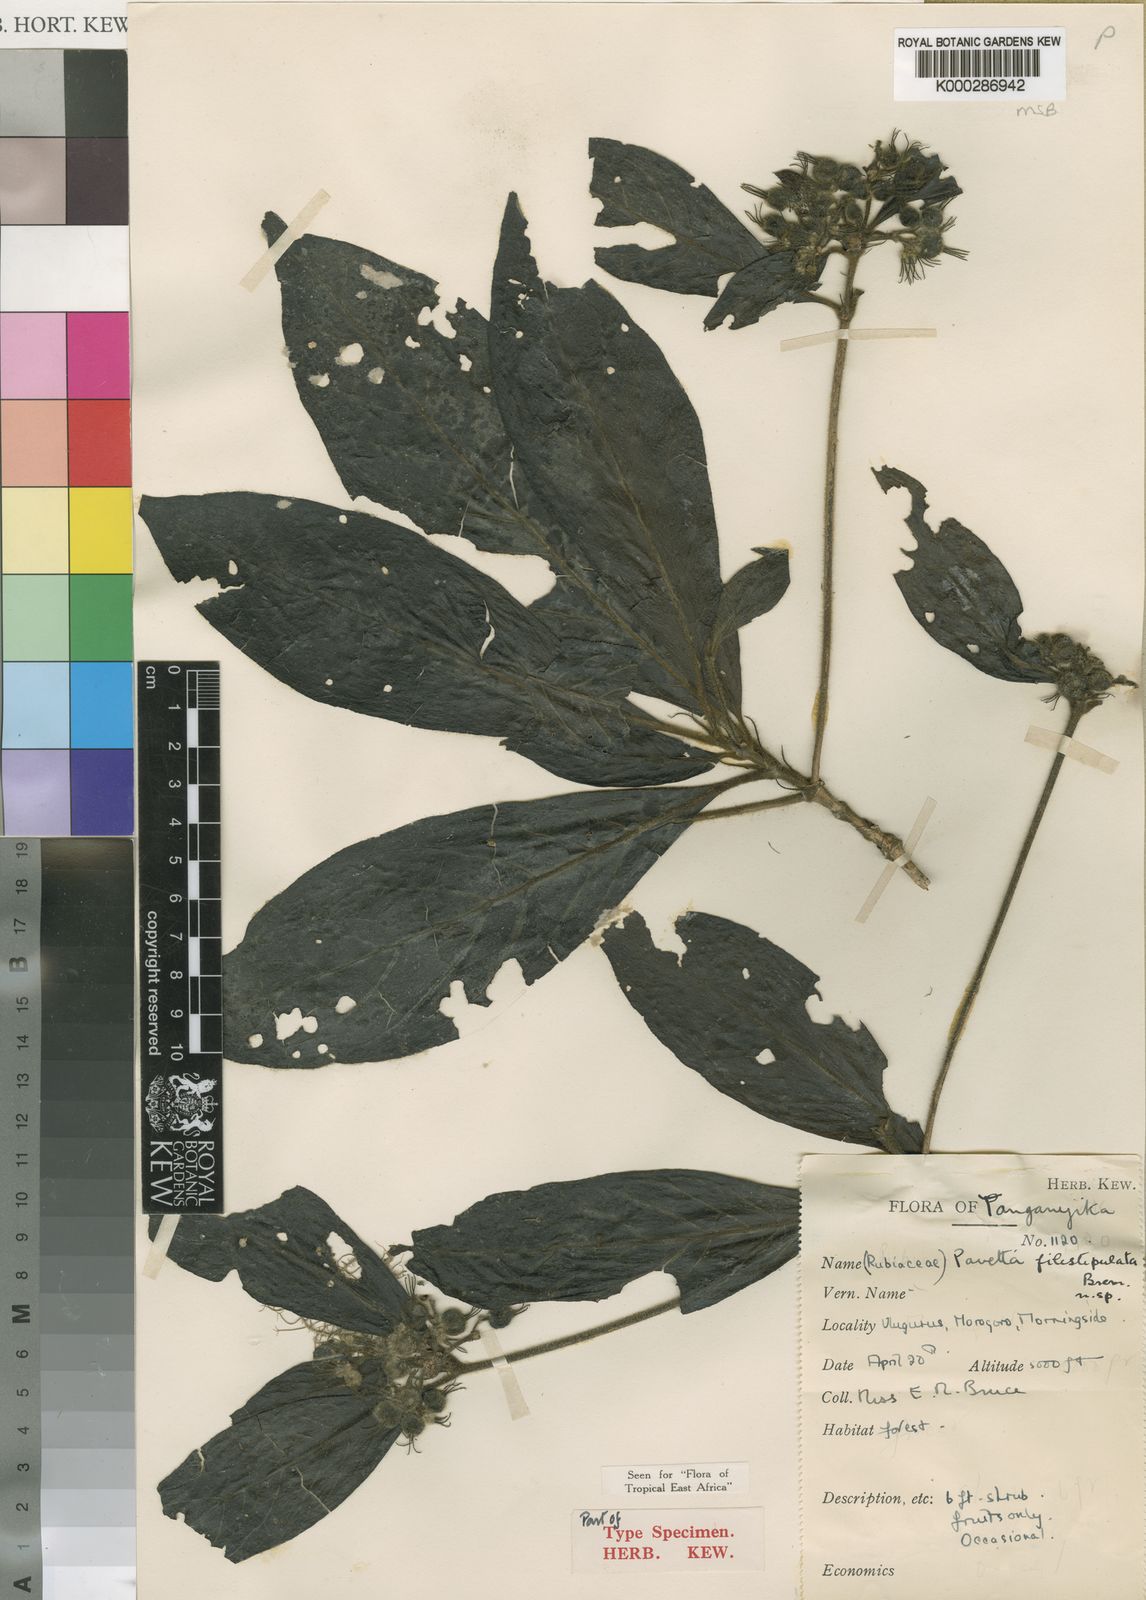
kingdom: Plantae
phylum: Tracheophyta
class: Magnoliopsida
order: Gentianales
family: Rubiaceae
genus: Pavetta
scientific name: Pavetta filistipulata
